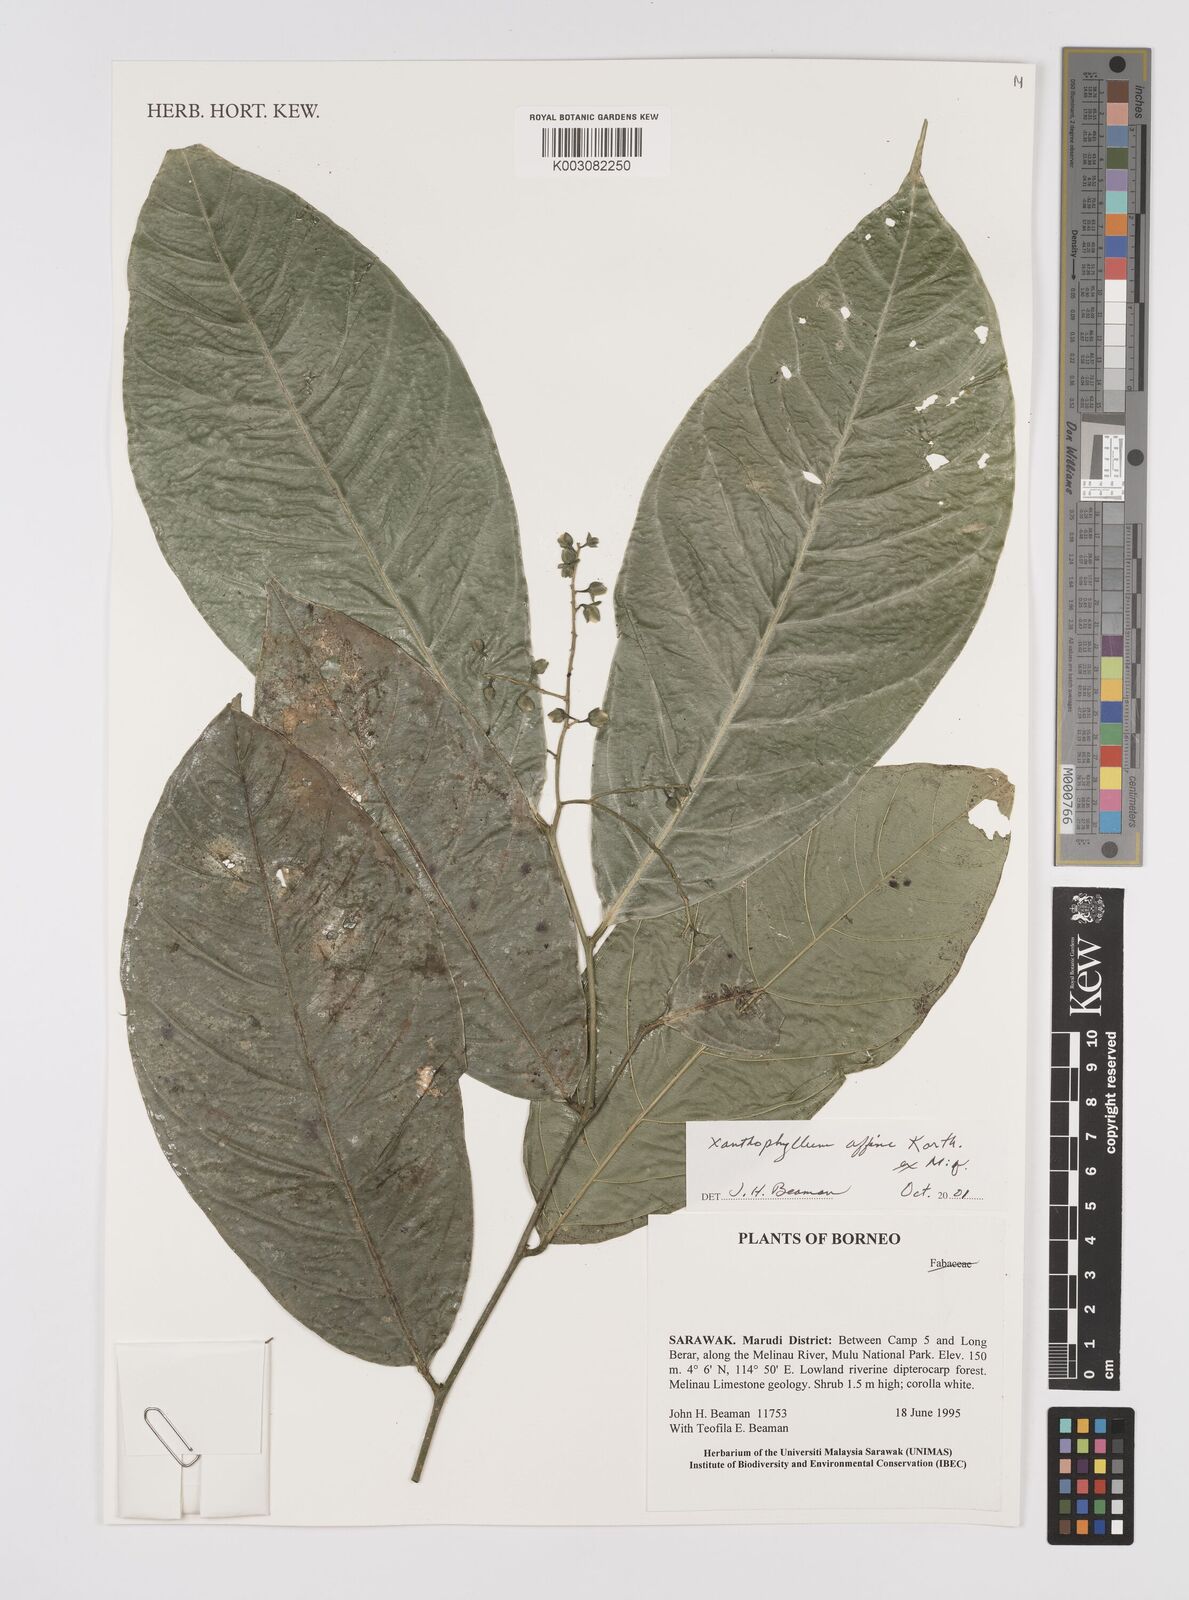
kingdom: Plantae
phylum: Tracheophyta
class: Magnoliopsida
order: Fabales
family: Polygalaceae
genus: Xanthophyllum
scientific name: Xanthophyllum flavescens
